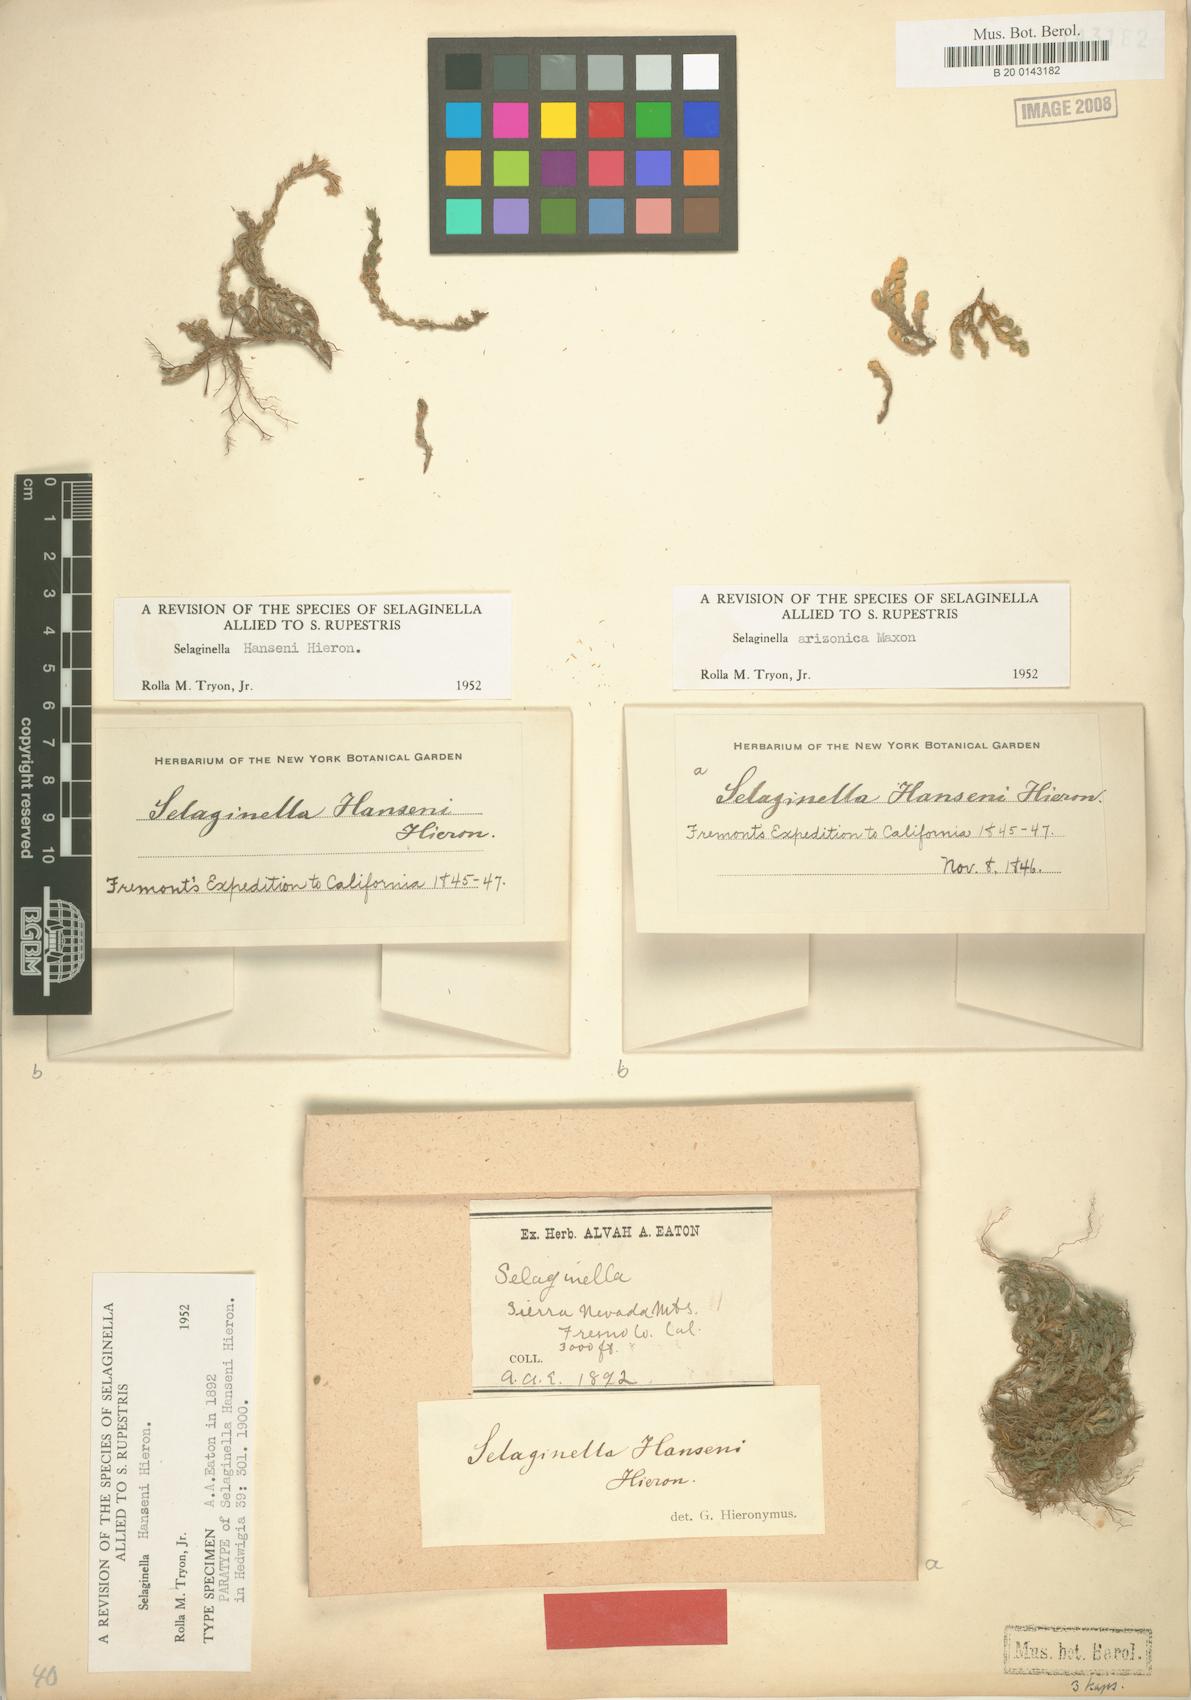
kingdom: Plantae
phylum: Tracheophyta
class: Lycopodiopsida
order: Selaginellales
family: Selaginellaceae
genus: Selaginella
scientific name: Selaginella hansenii
